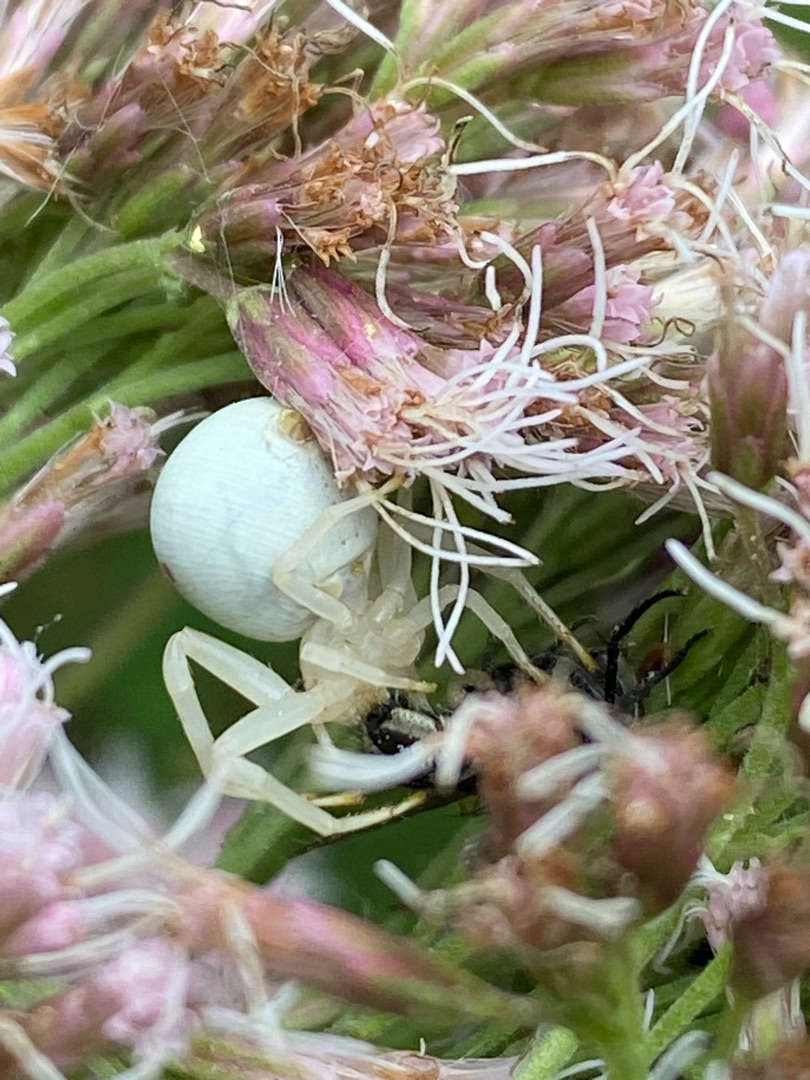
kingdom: Animalia
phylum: Arthropoda
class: Arachnida
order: Araneae
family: Thomisidae
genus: Misumena
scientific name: Misumena vatia
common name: Kamæleonedderkop
